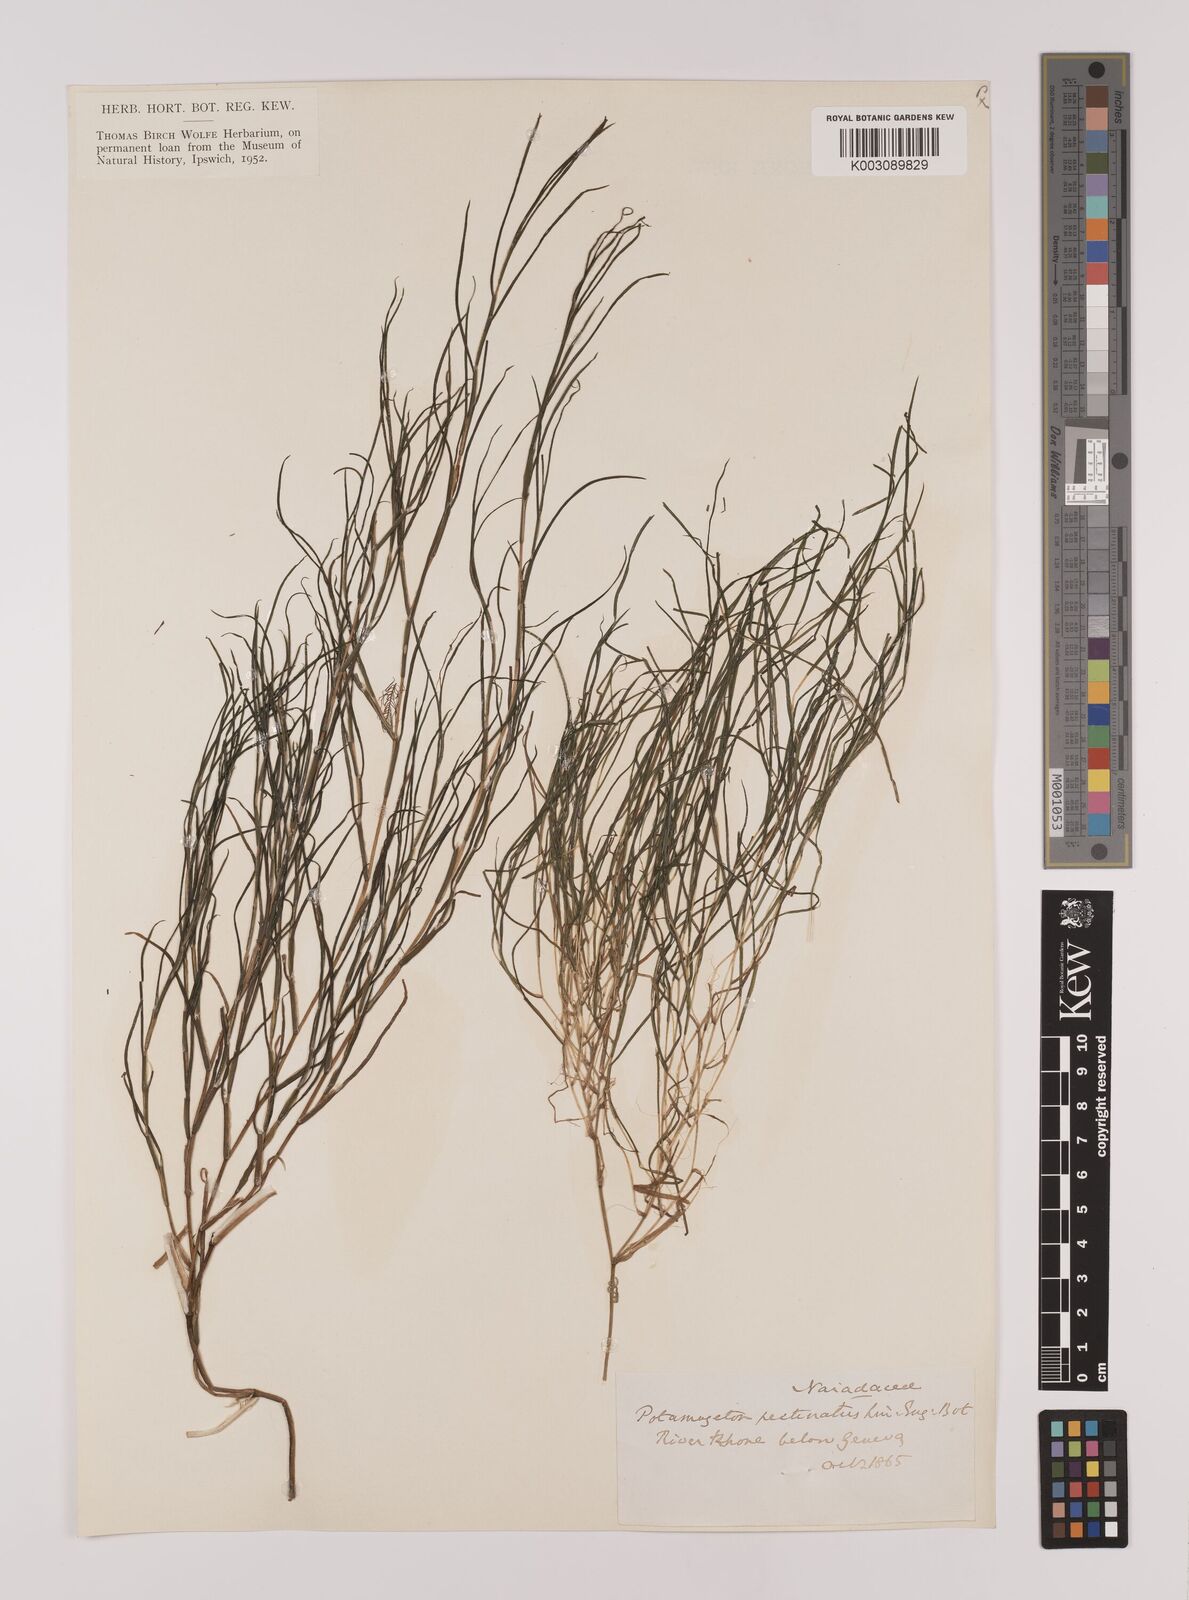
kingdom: Plantae
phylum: Tracheophyta
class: Liliopsida
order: Alismatales
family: Potamogetonaceae
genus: Stuckenia
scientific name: Stuckenia pectinata
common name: Sago pondweed
